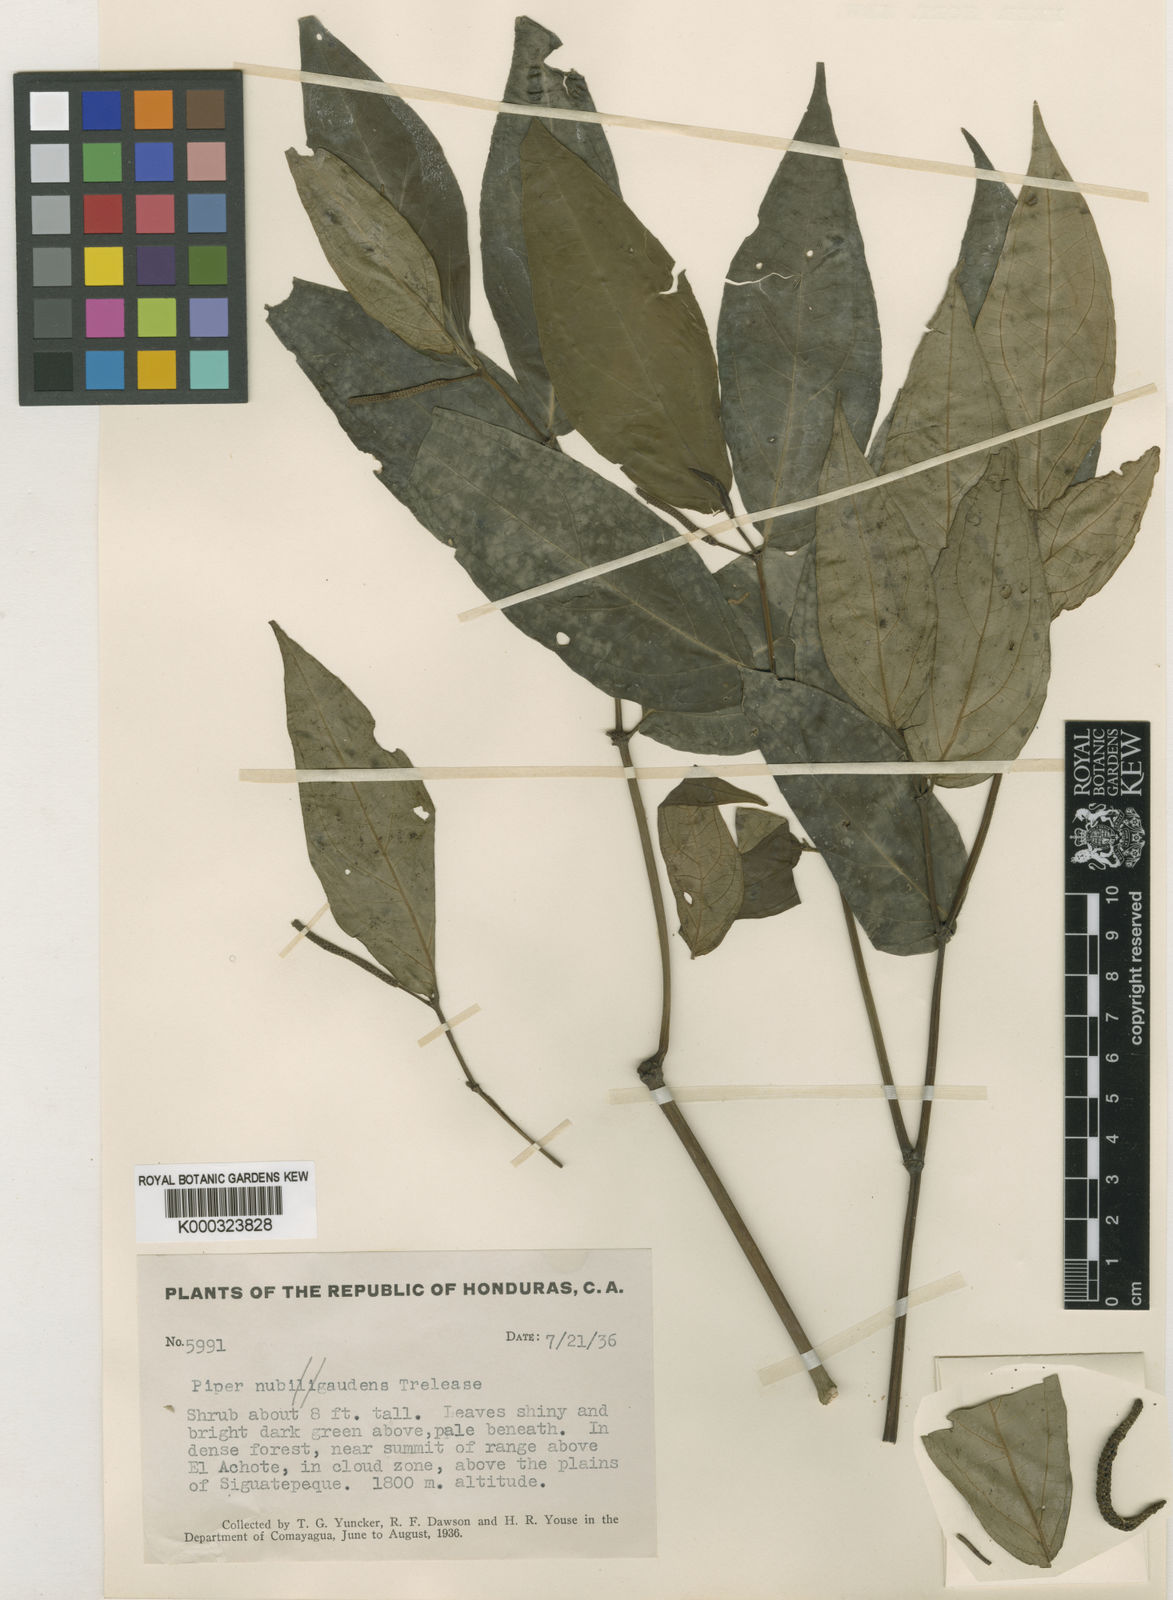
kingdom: Plantae
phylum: Tracheophyta
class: Magnoliopsida
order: Piperales
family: Piperaceae
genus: Piper
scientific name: Piper scalarispicum
